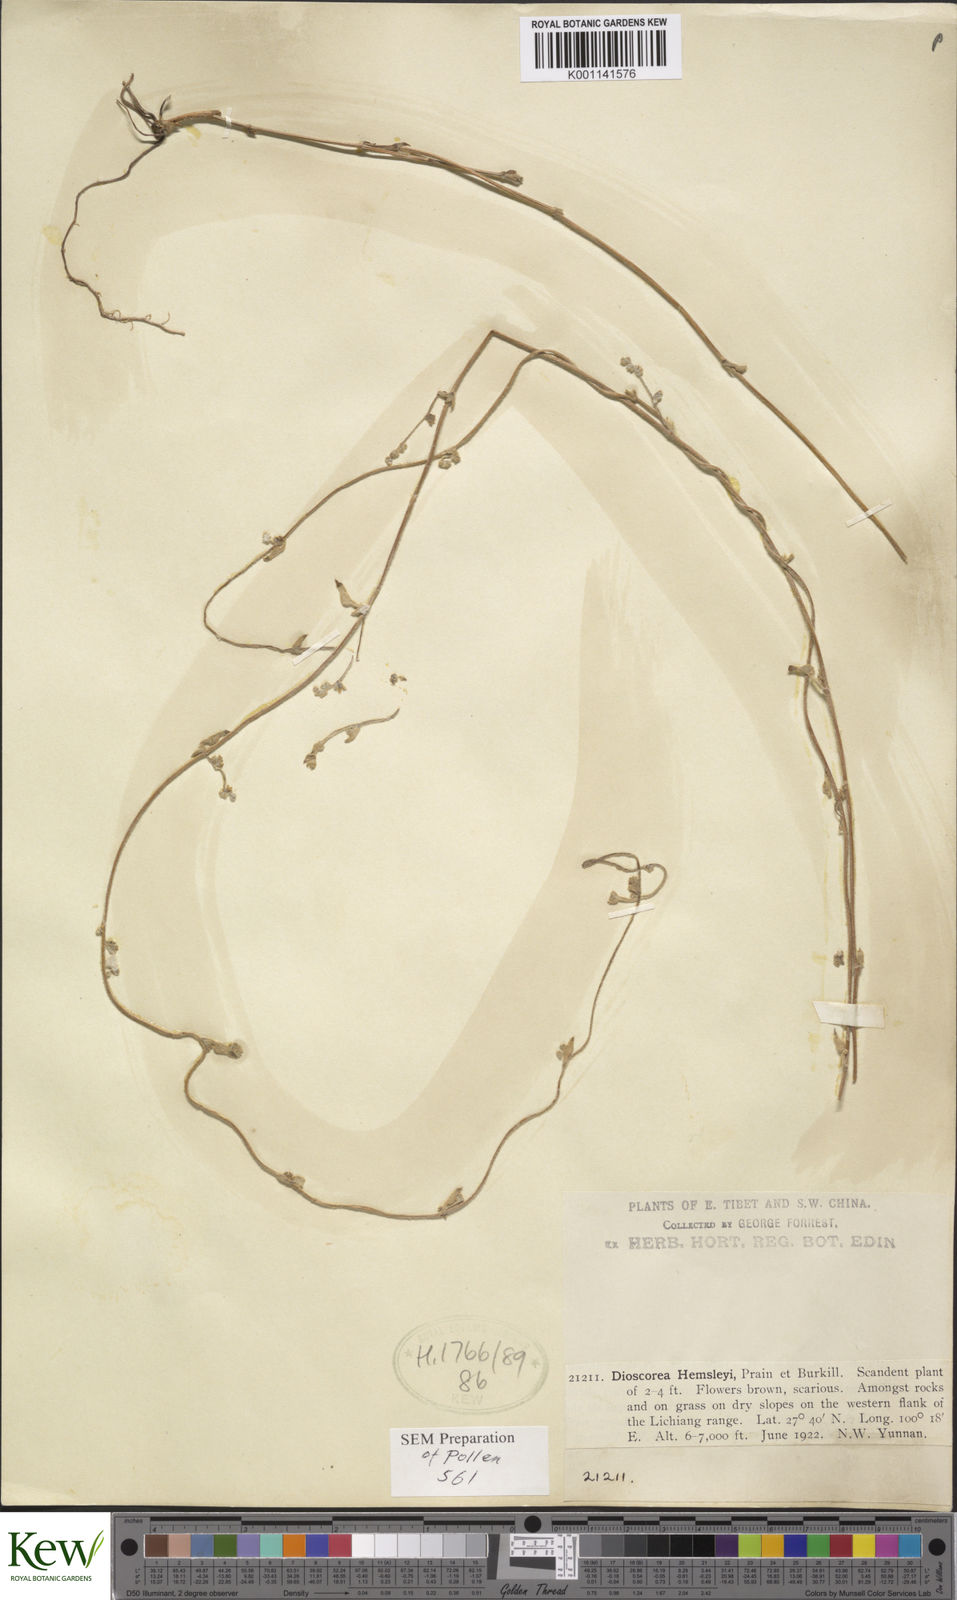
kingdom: Plantae
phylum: Tracheophyta
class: Liliopsida
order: Dioscoreales
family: Dioscoreaceae
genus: Dioscorea
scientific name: Dioscorea hemsleyi
